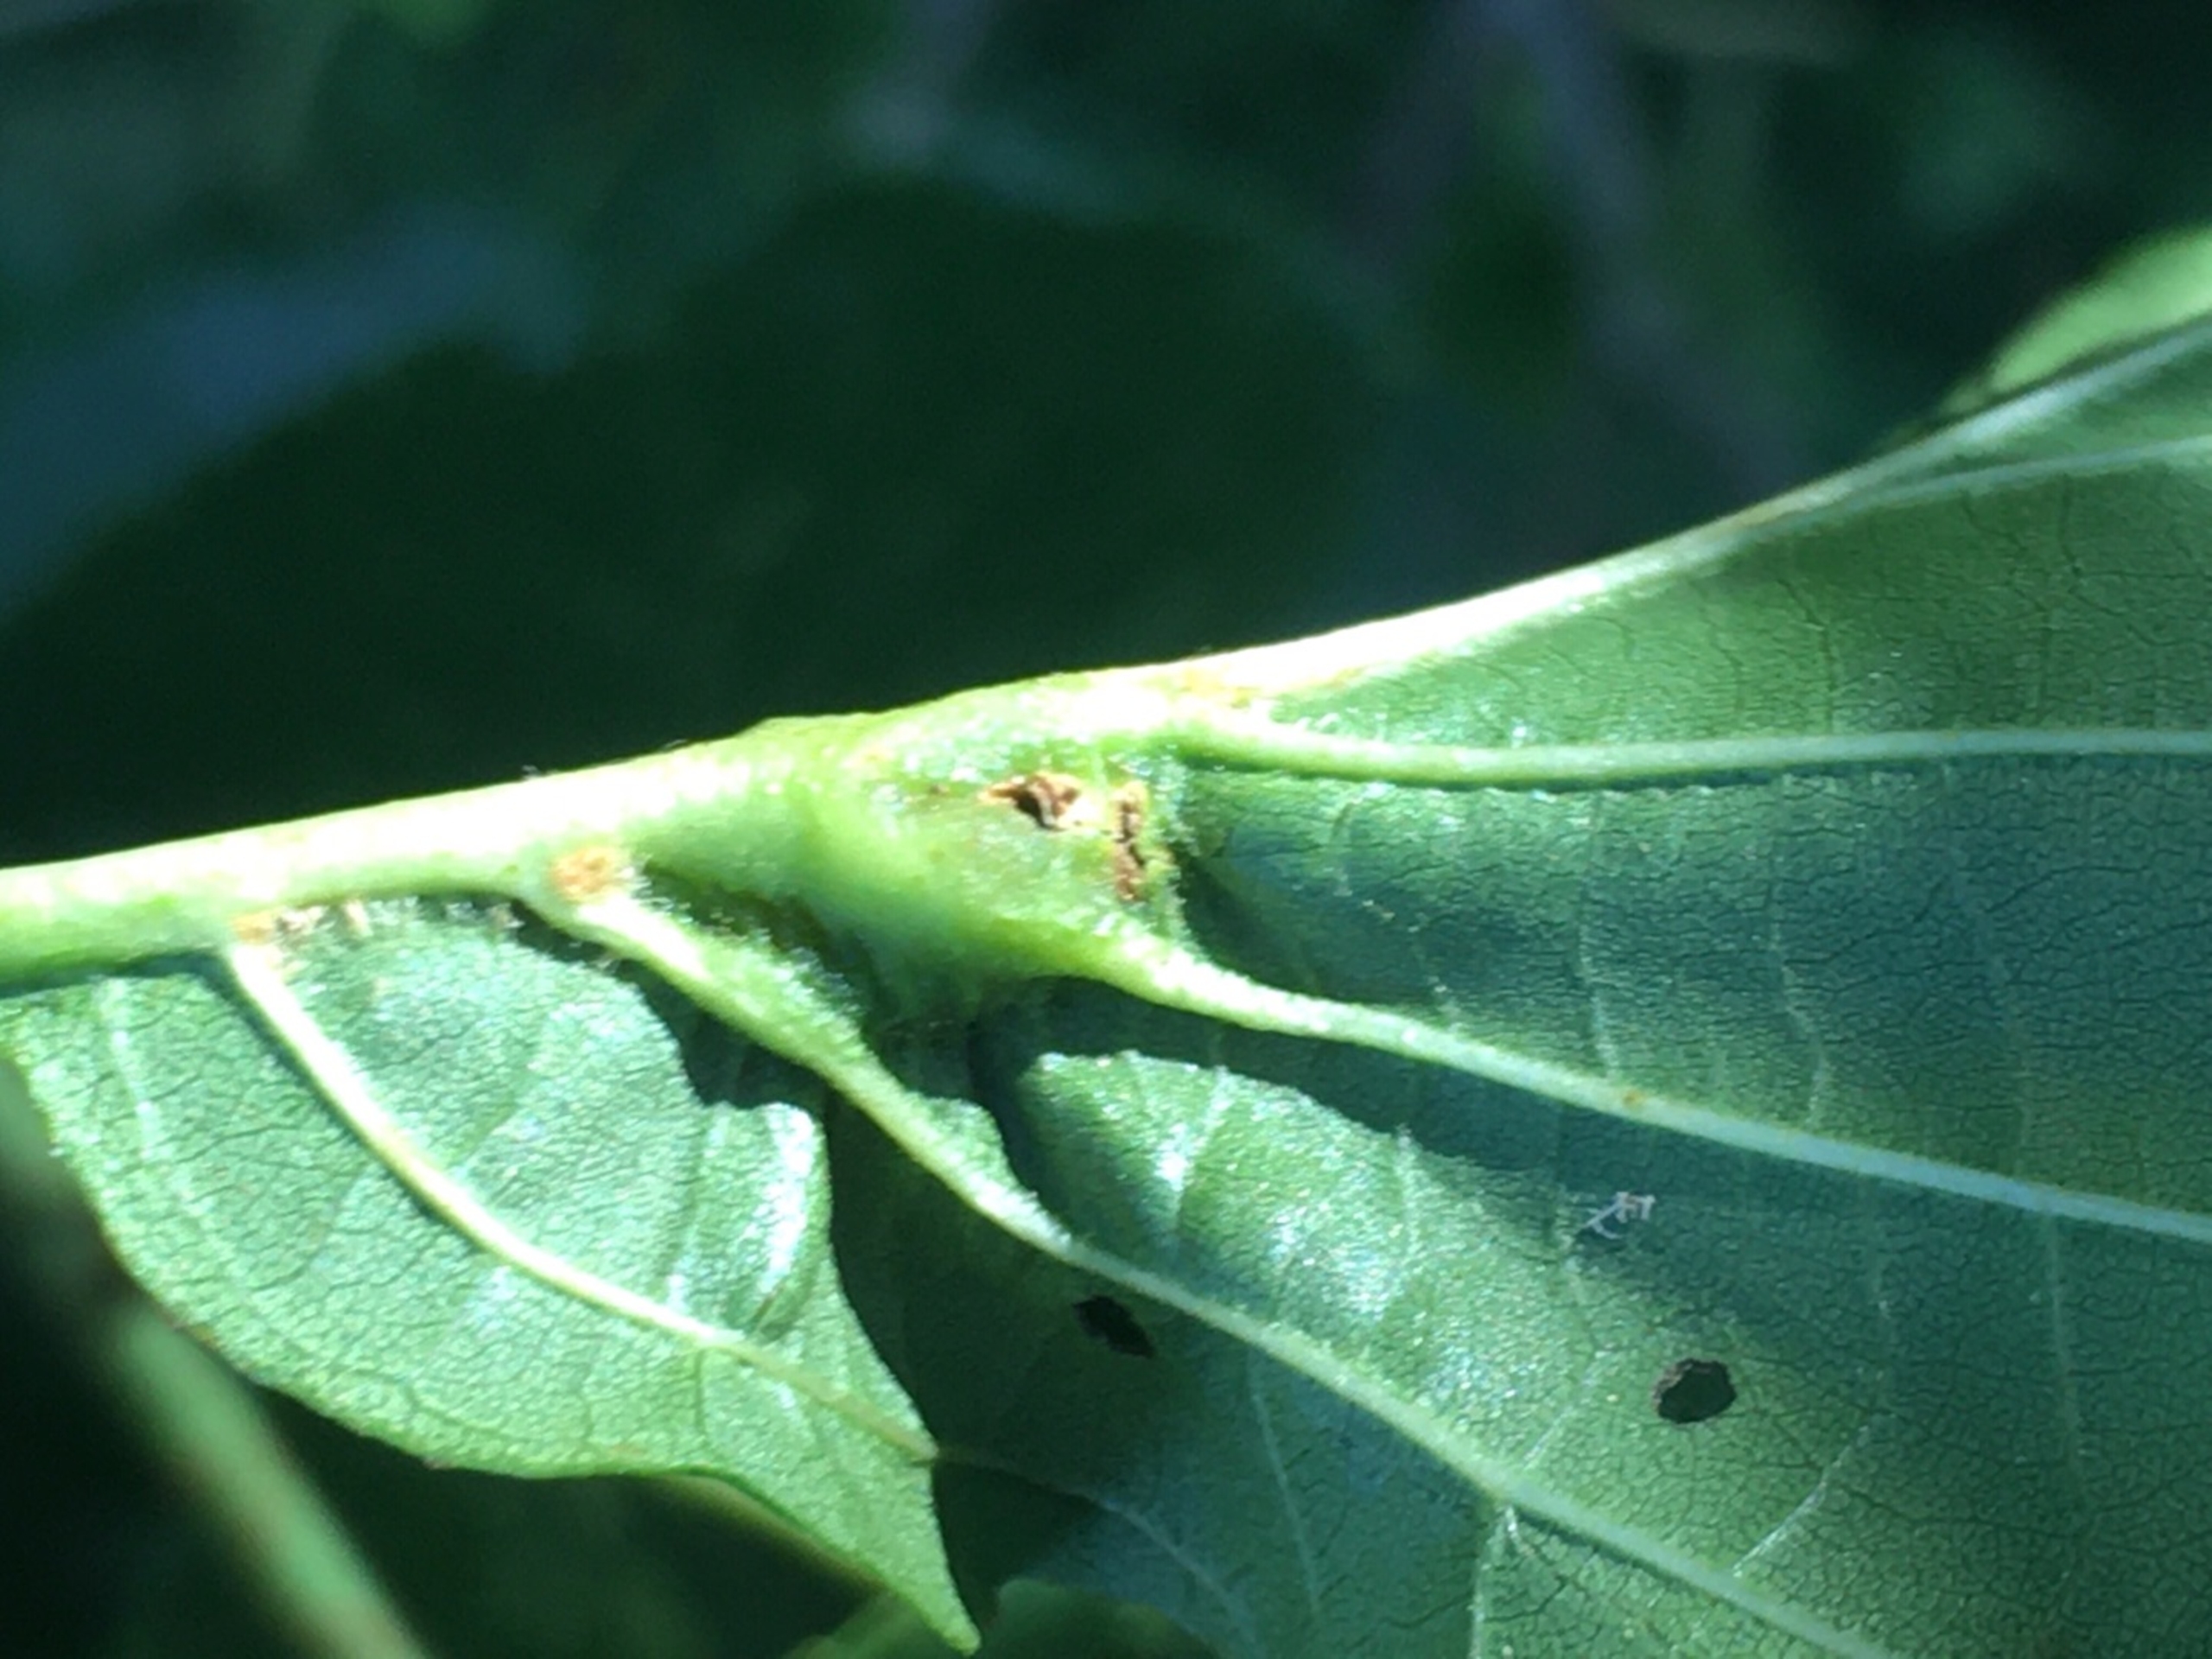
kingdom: Animalia
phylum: Arthropoda
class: Insecta
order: Diptera
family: Cecidomyiidae
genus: Dasineura
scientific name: Dasineura tortilis
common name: Ellebladgalmyg
